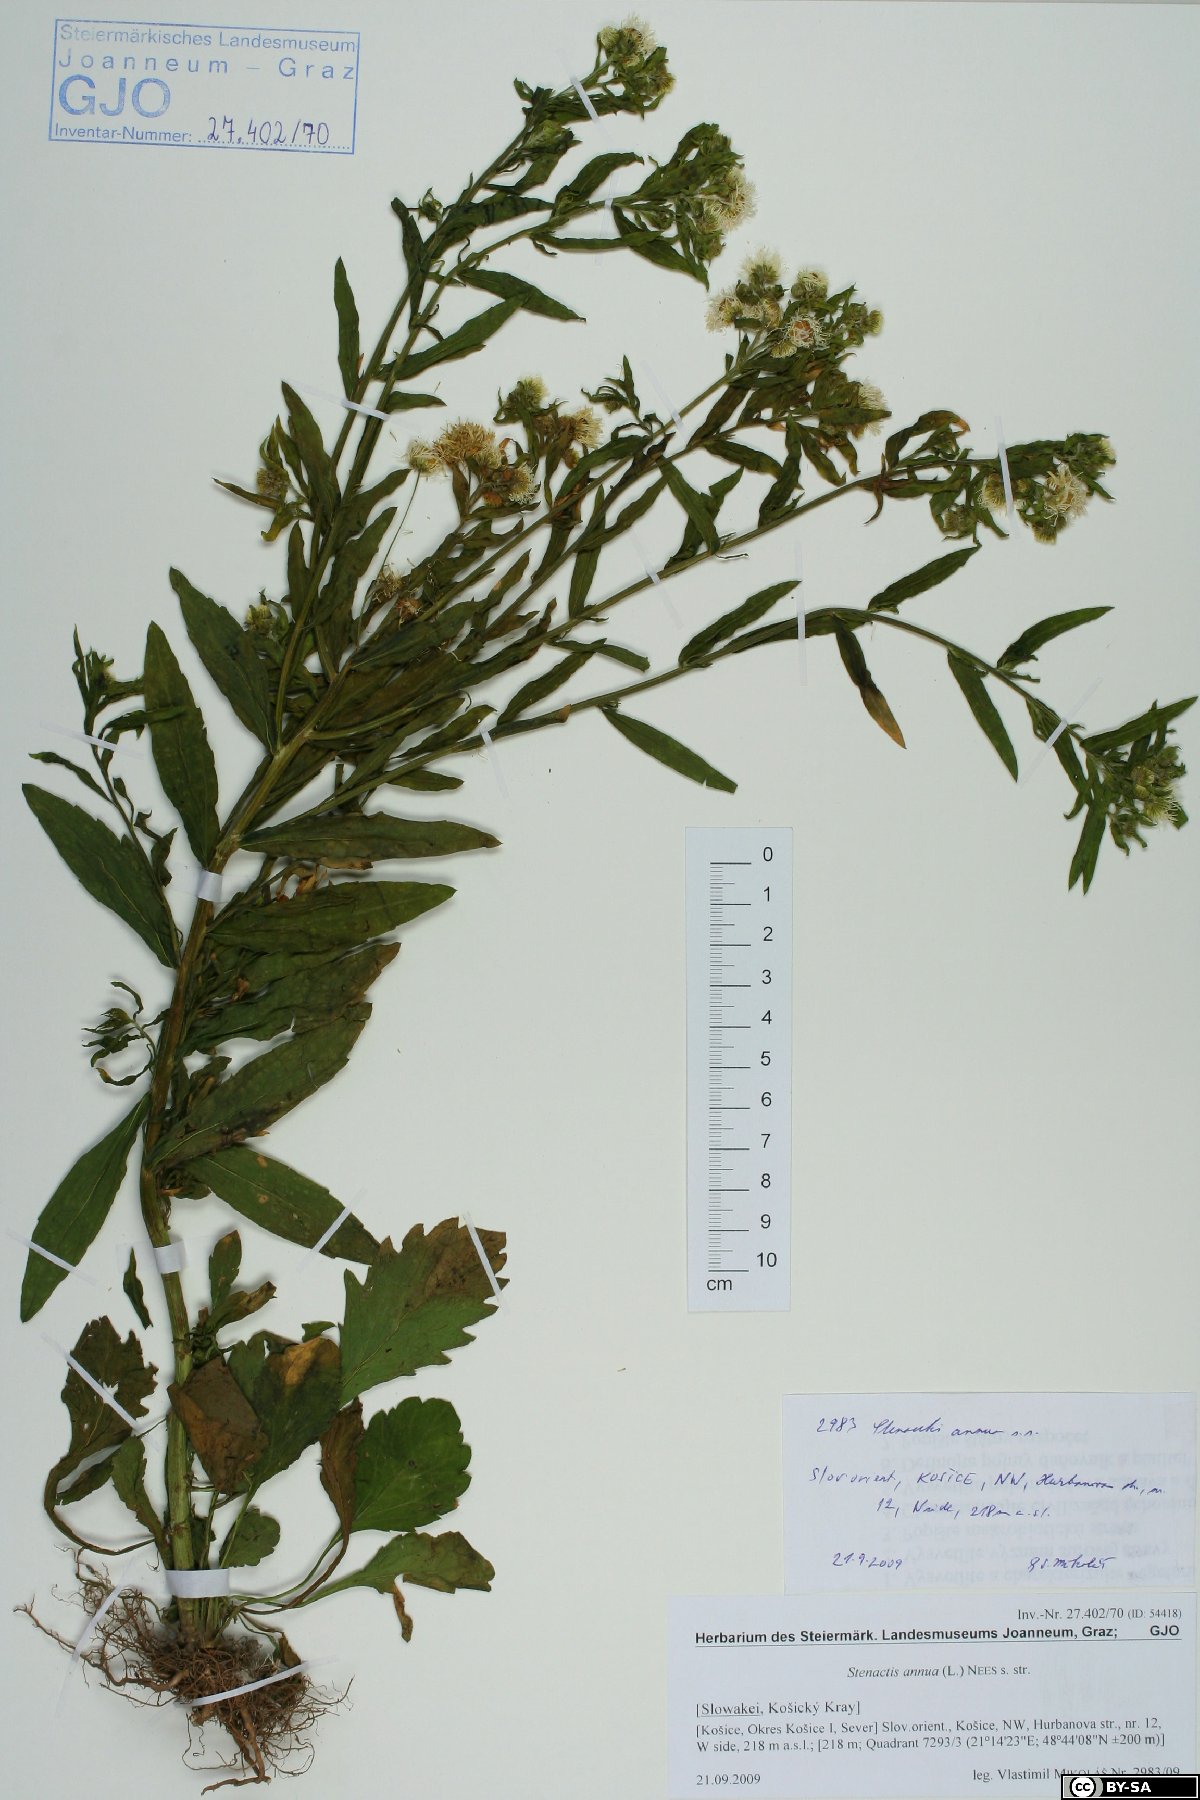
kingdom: Plantae
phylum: Tracheophyta
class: Magnoliopsida
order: Asterales
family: Asteraceae
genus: Erigeron
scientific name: Erigeron annuus
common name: Tall fleabane
